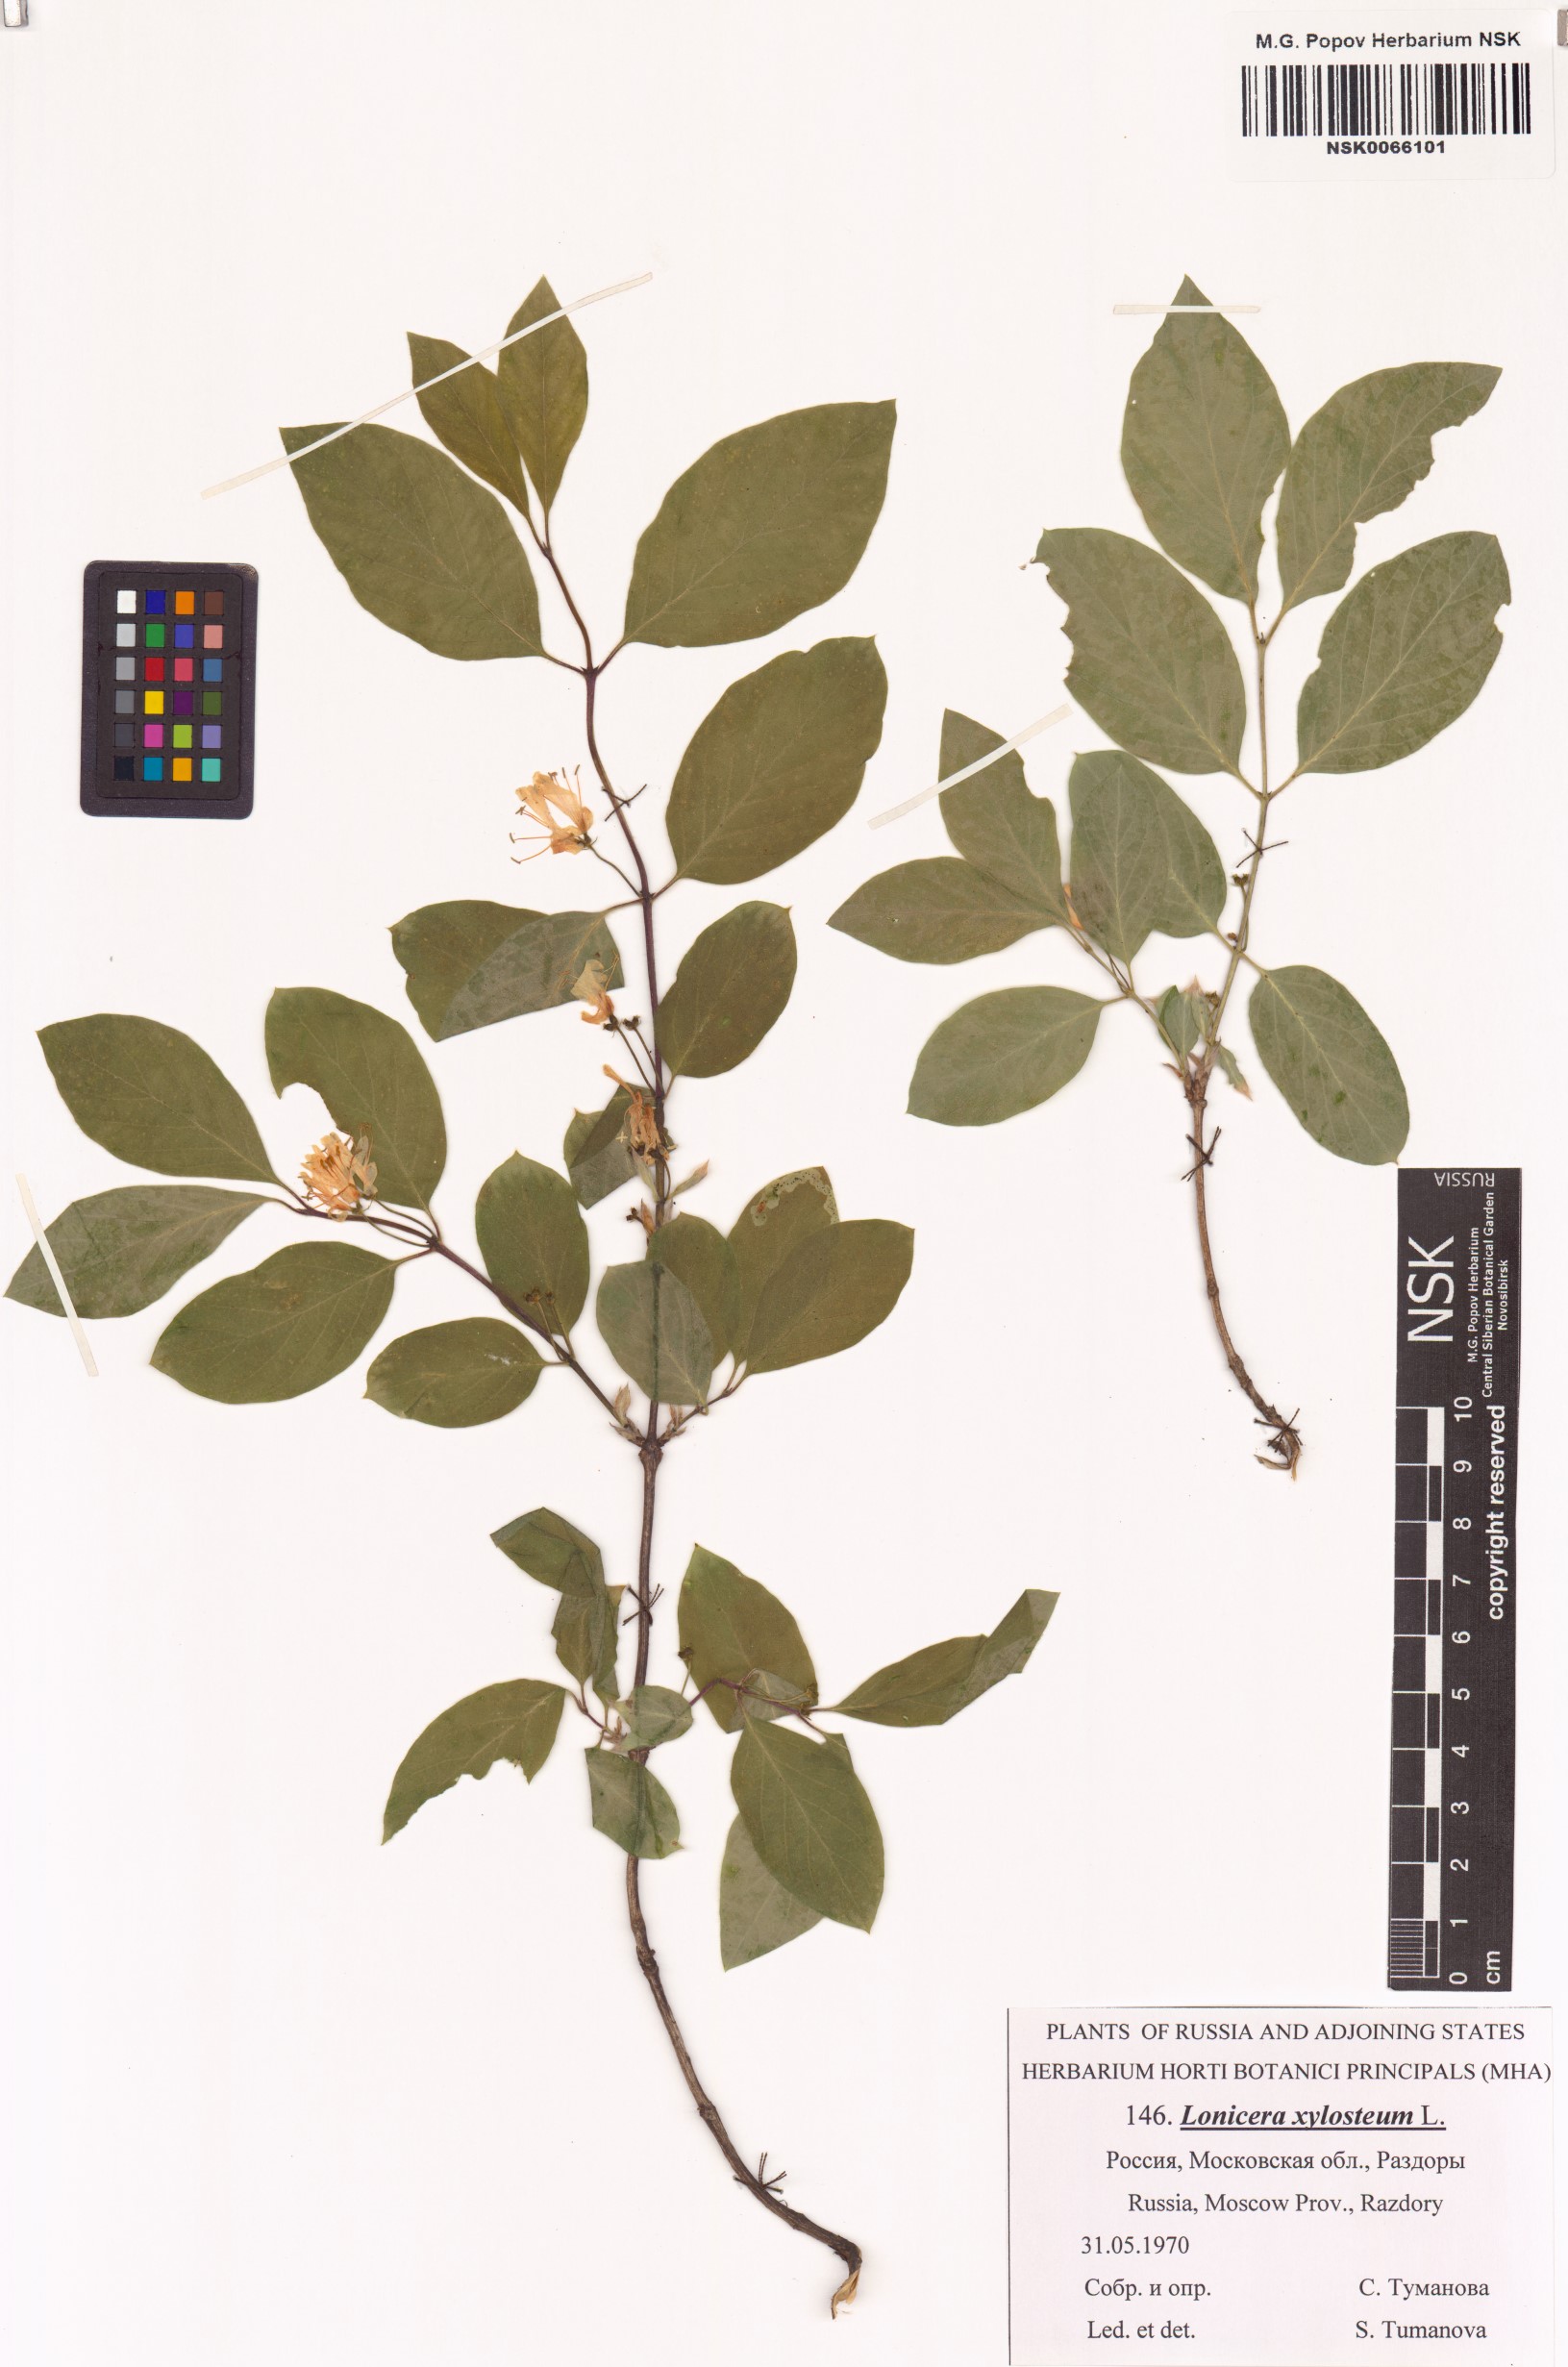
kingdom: Plantae
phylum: Tracheophyta
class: Magnoliopsida
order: Dipsacales
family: Caprifoliaceae
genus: Lonicera
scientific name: Lonicera xylosteum
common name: Fly honeysuckle
